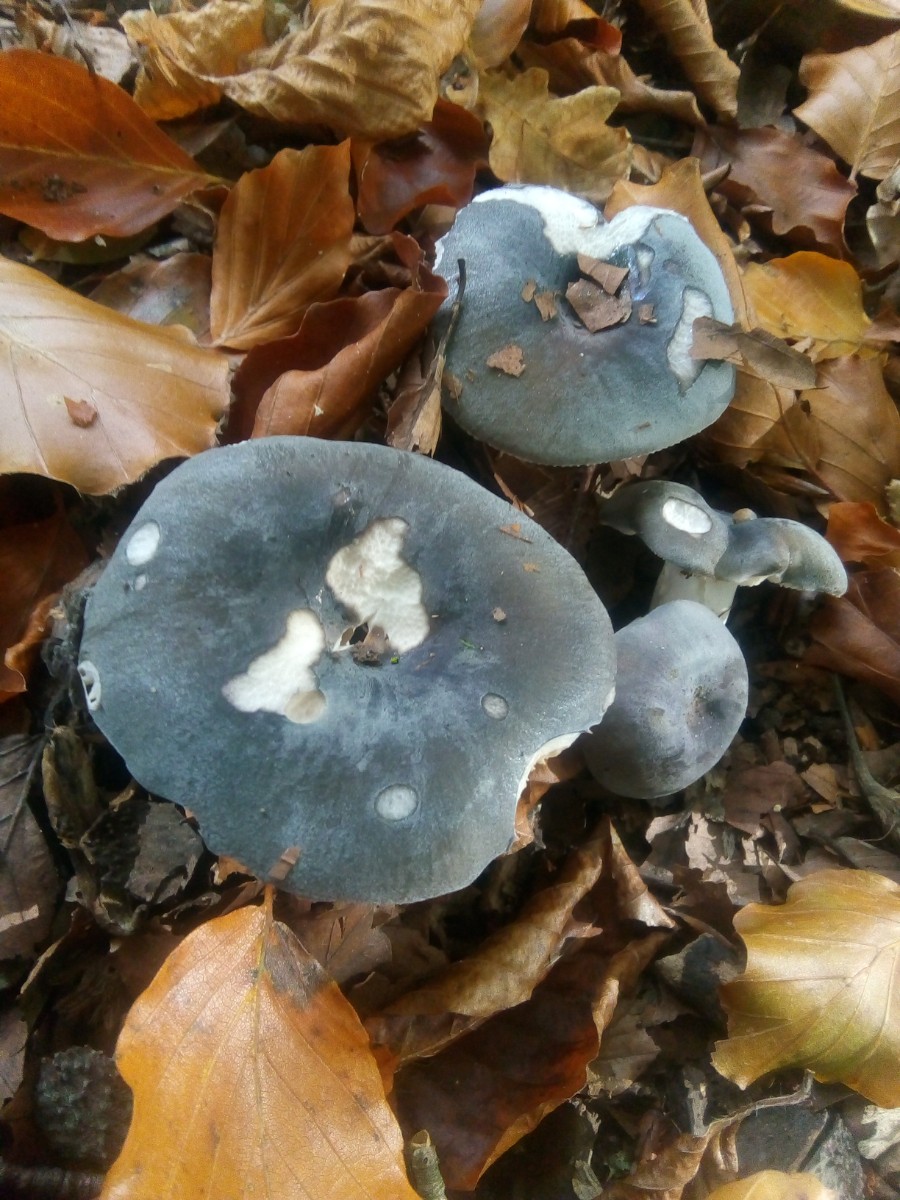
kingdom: Fungi
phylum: Basidiomycota
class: Agaricomycetes
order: Russulales
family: Russulaceae
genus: Russula
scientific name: Russula parazurea
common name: blågrå skørhat
